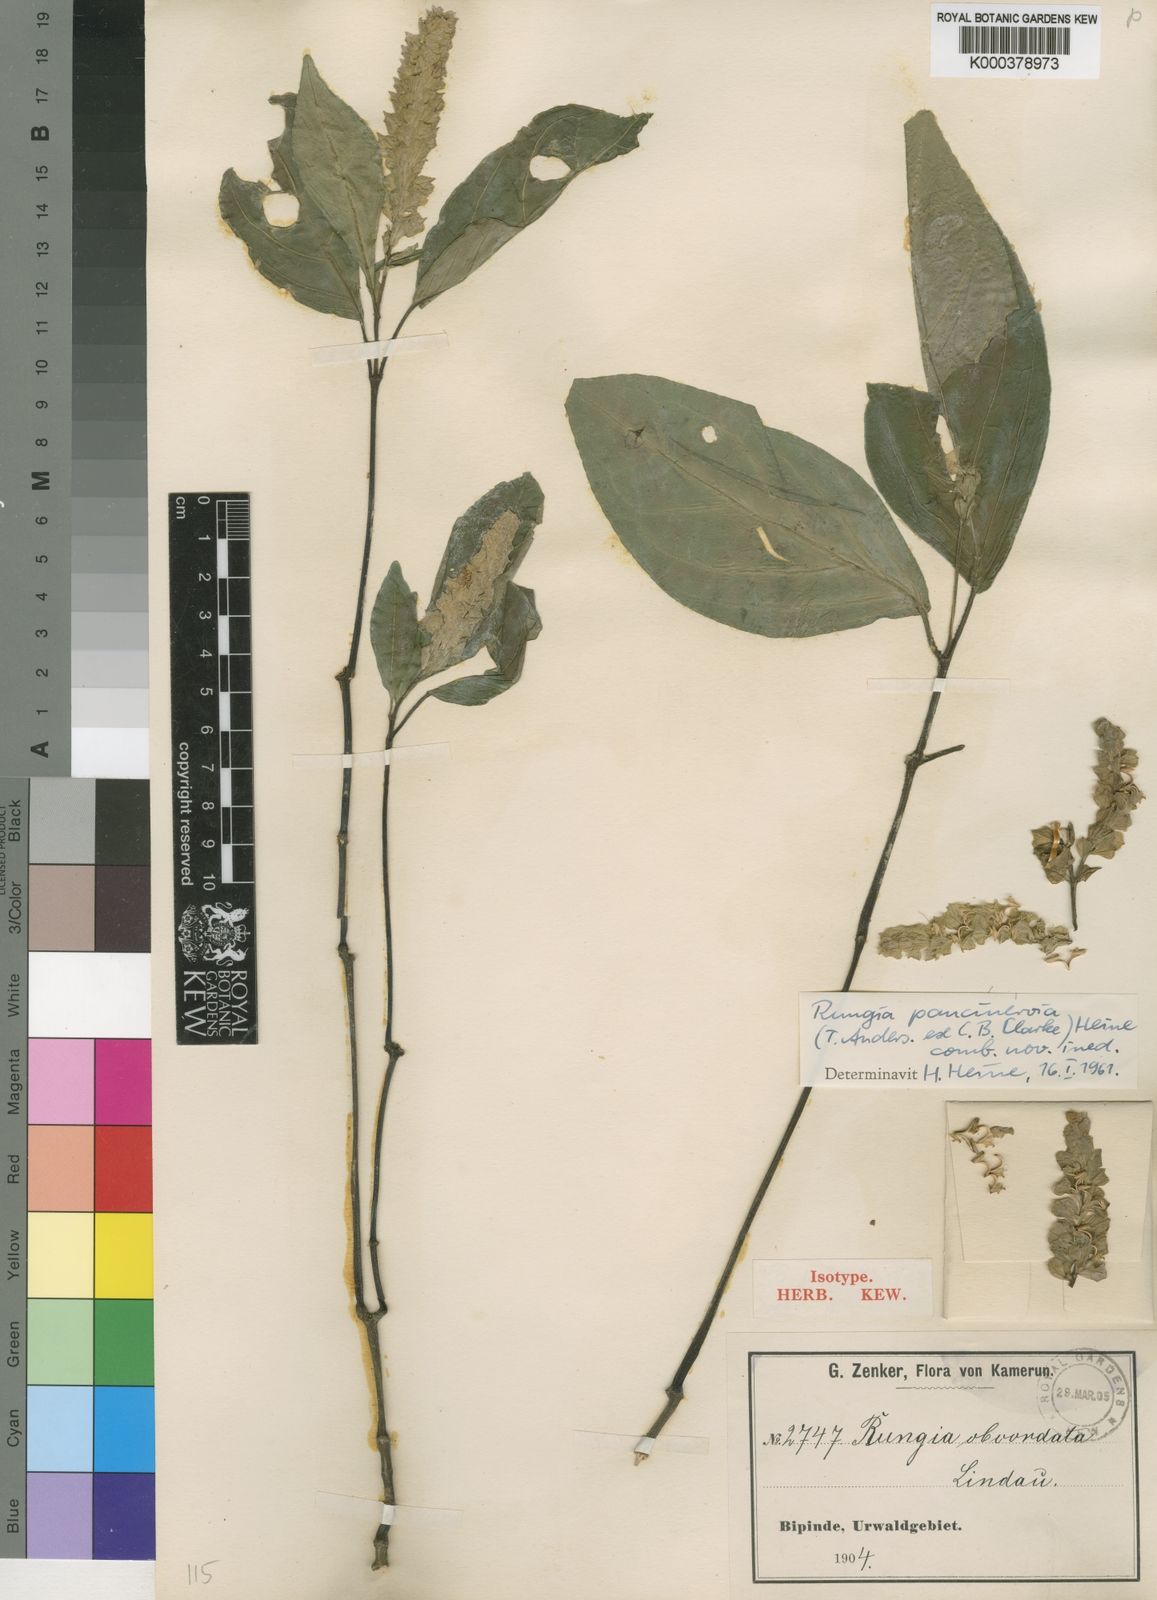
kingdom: Plantae
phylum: Tracheophyta
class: Magnoliopsida
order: Lamiales
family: Acanthaceae
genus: Ascotheca
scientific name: Ascotheca paucinervia
